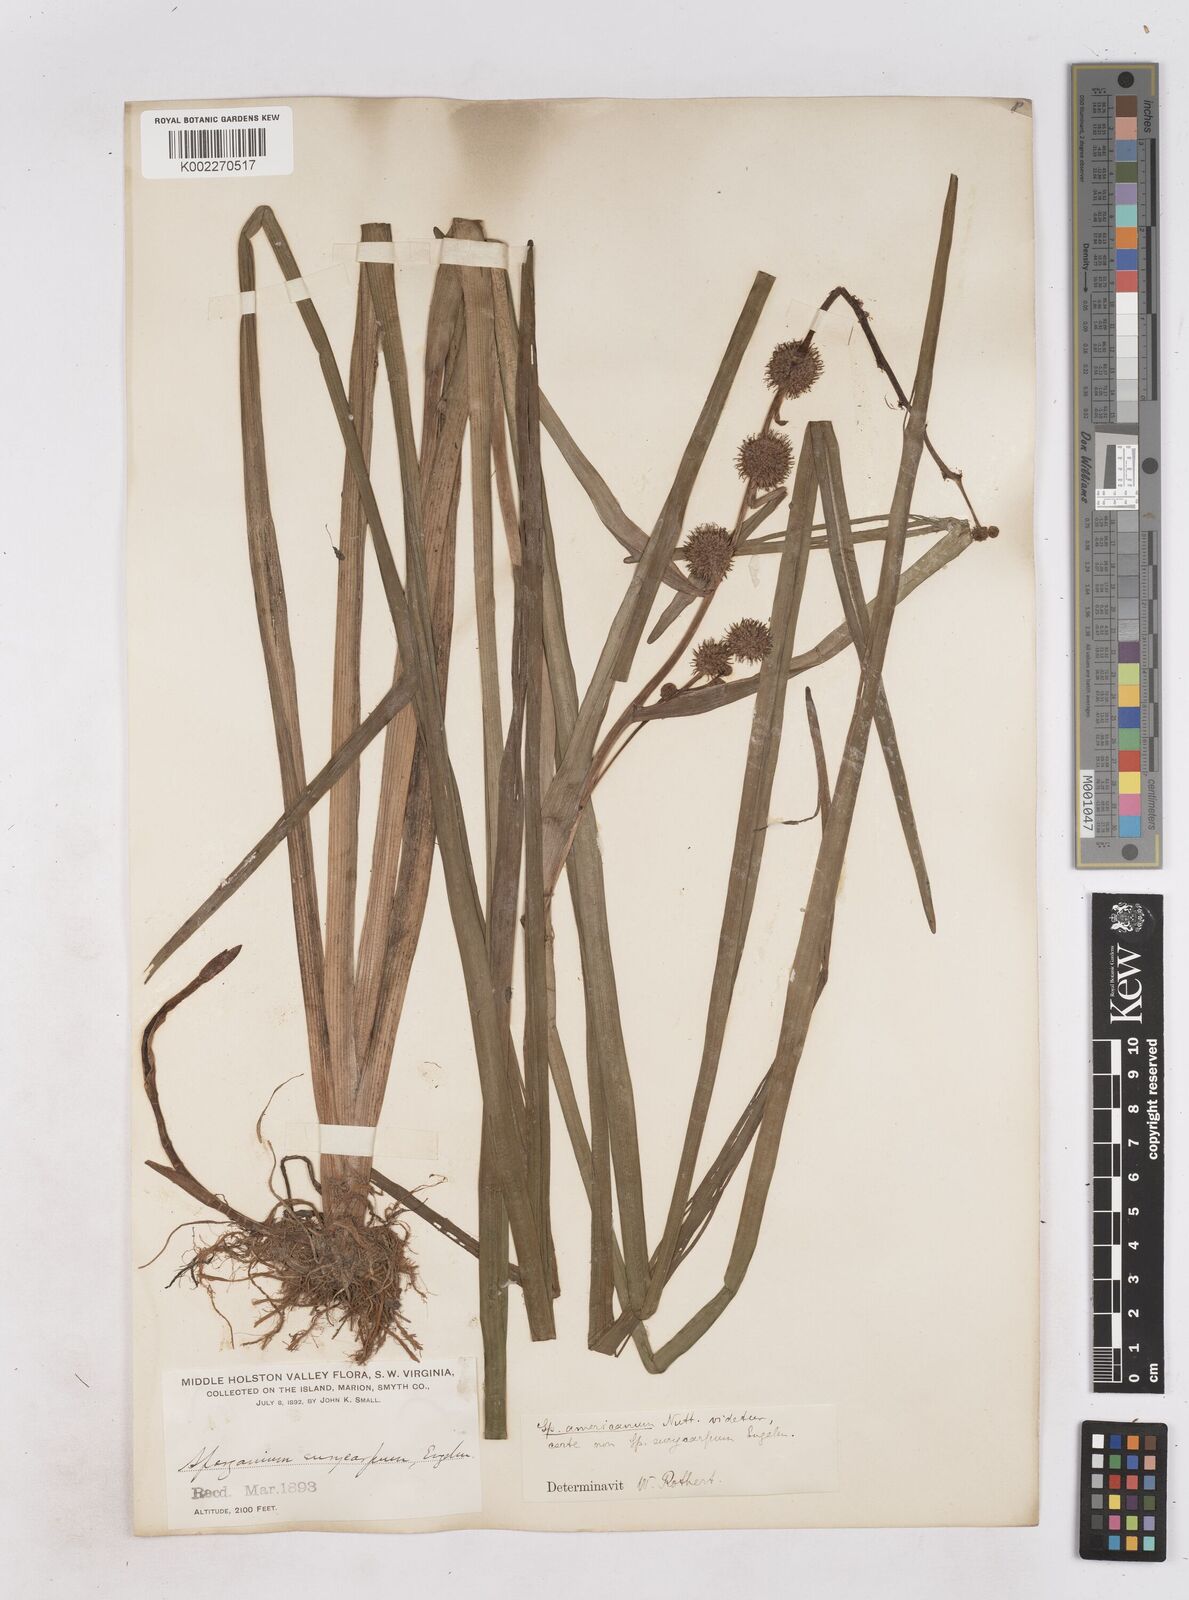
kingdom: Plantae
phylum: Tracheophyta
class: Liliopsida
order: Poales
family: Typhaceae
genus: Sparganium
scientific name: Sparganium americanum
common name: American burreed
